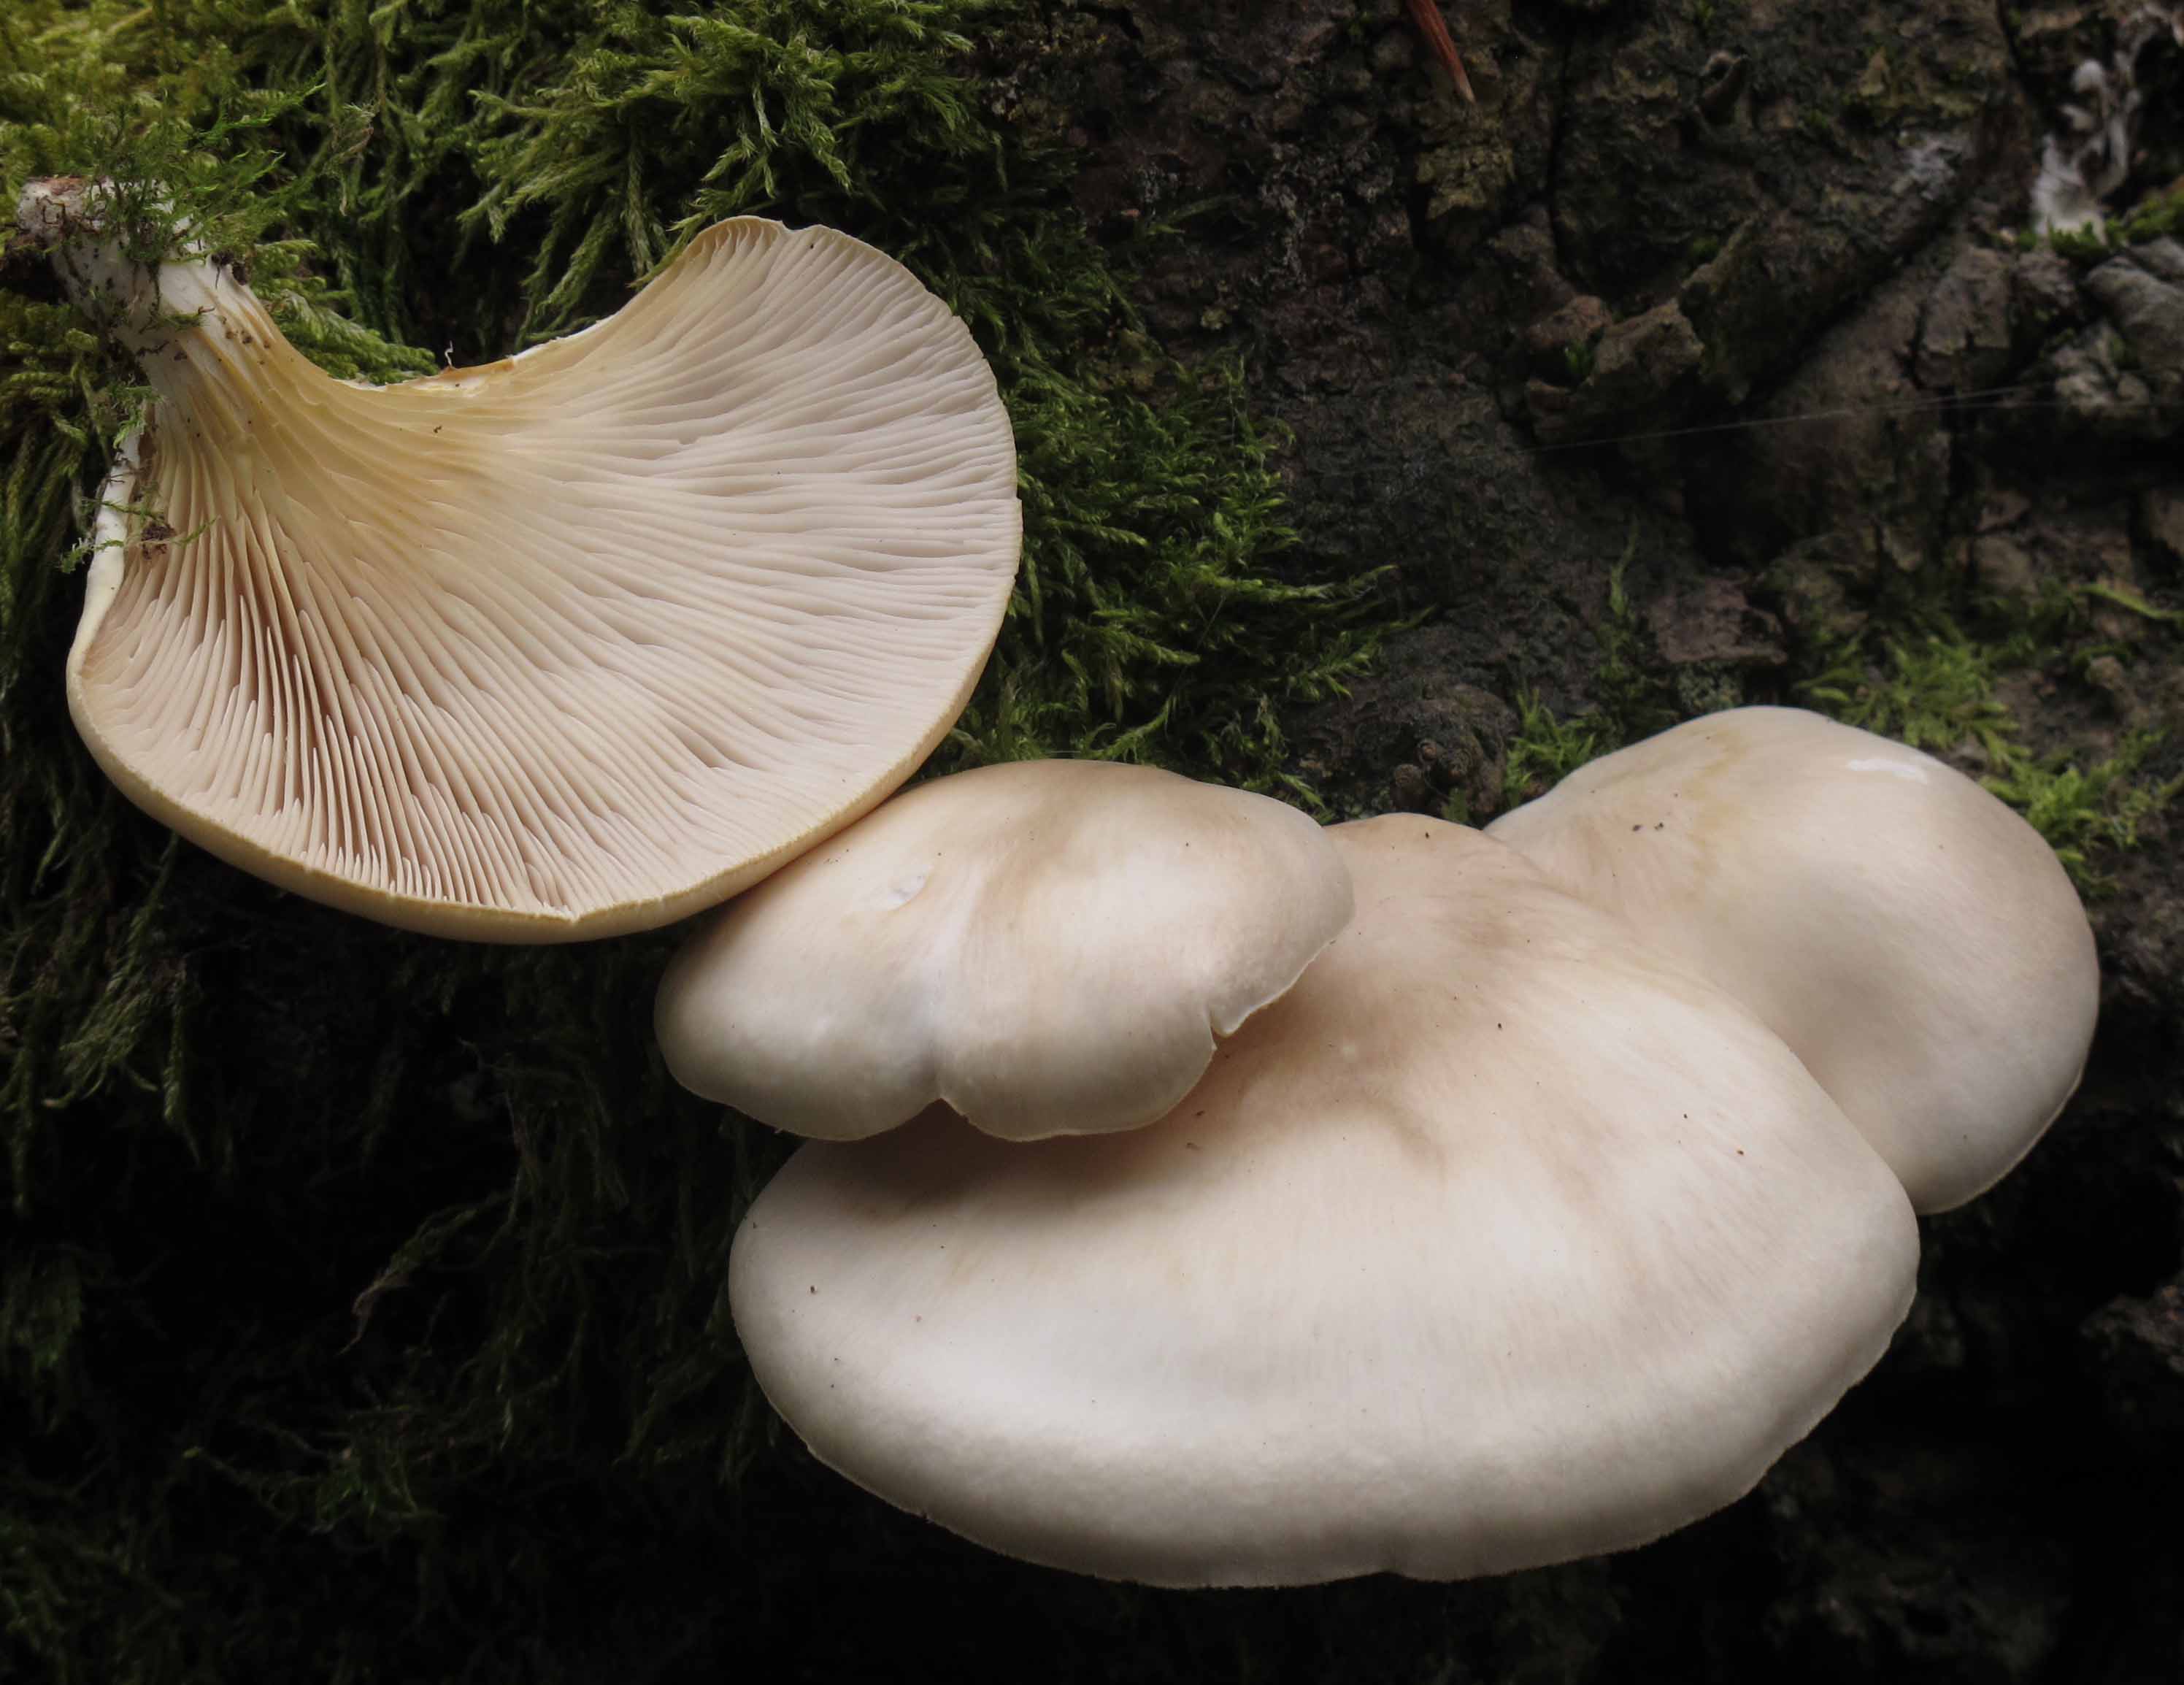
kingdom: Fungi
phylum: Basidiomycota
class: Agaricomycetes
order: Agaricales
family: Pleurotaceae
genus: Pleurotus
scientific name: Pleurotus pulmonarius
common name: sommer-østershat
